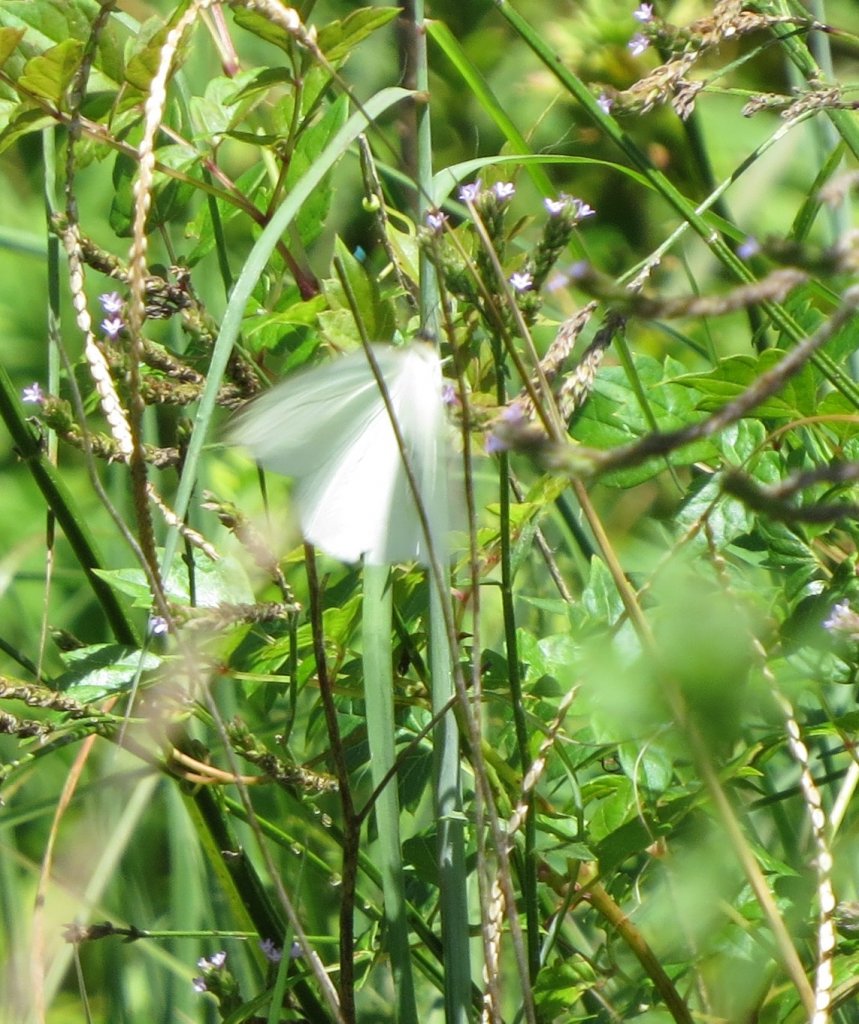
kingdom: Animalia
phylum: Arthropoda
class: Insecta
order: Lepidoptera
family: Pieridae
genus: Ascia
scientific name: Ascia monuste
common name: Great Southern White
